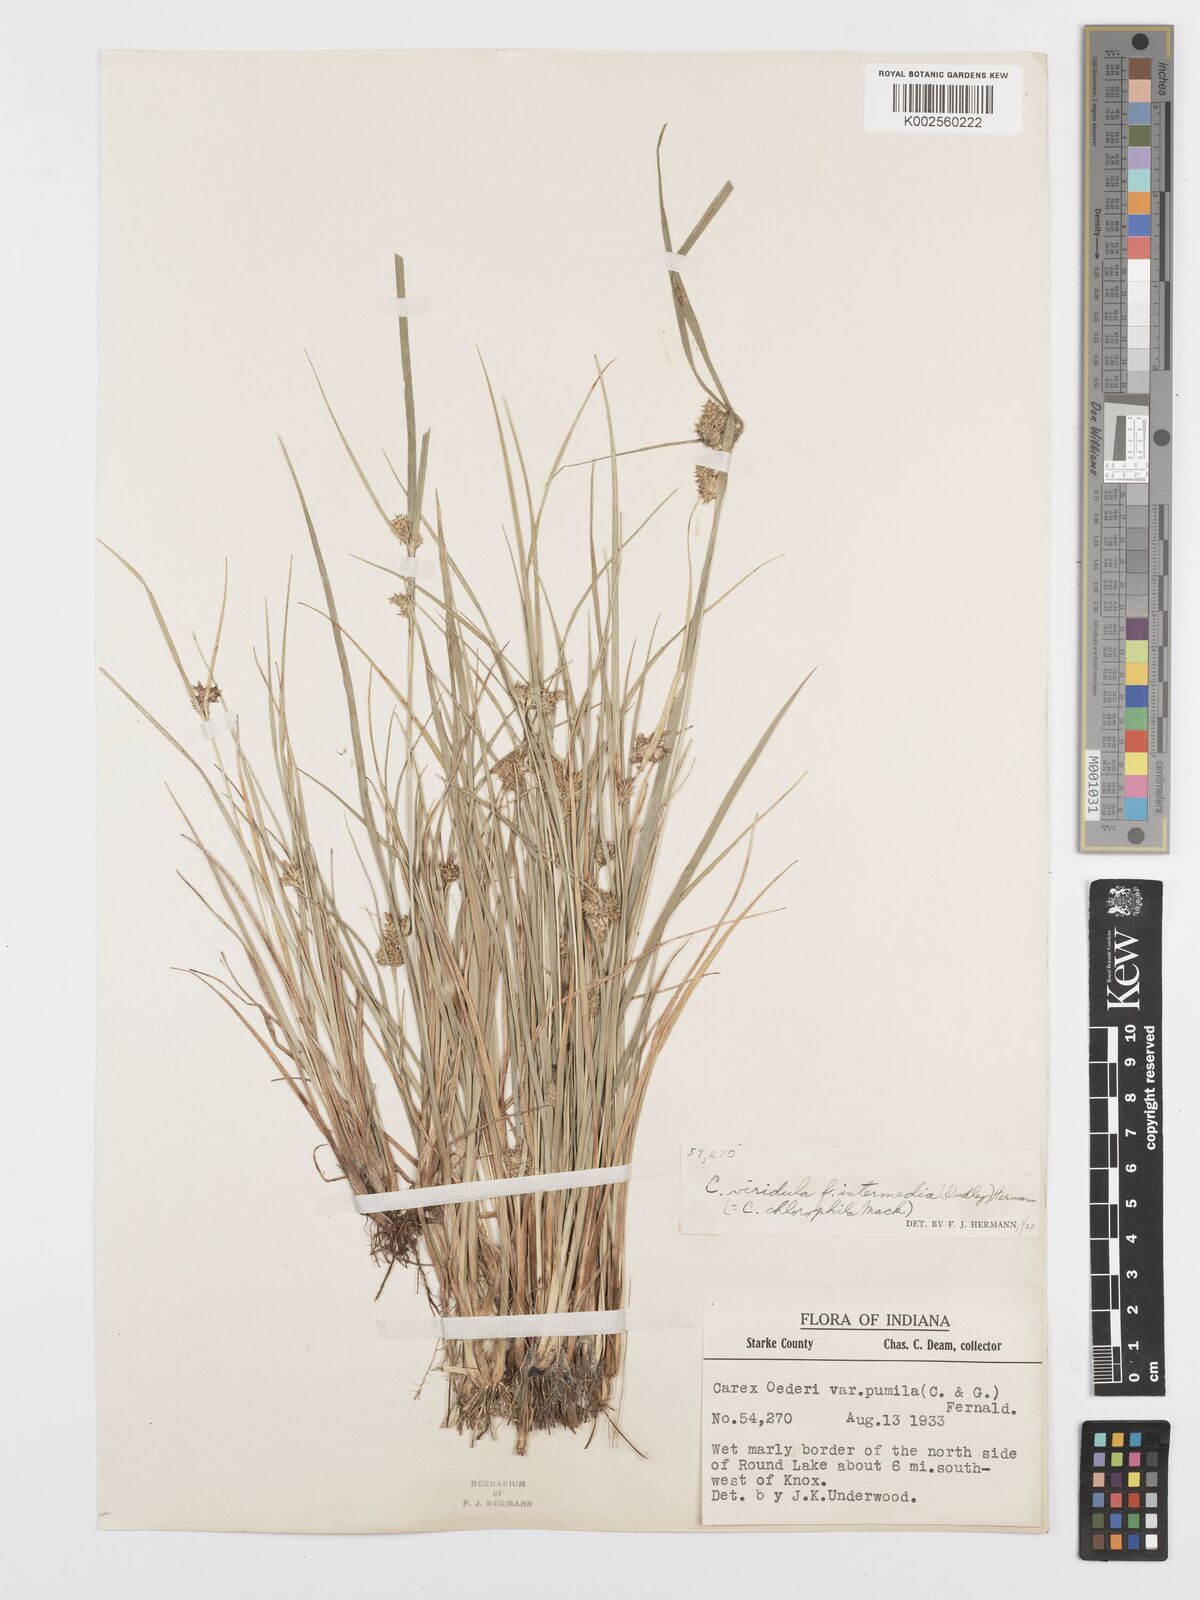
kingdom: Plantae
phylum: Tracheophyta
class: Liliopsida
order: Poales
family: Cyperaceae
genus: Carex
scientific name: Carex oederi
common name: Common & small-fruited yellow-sedge
